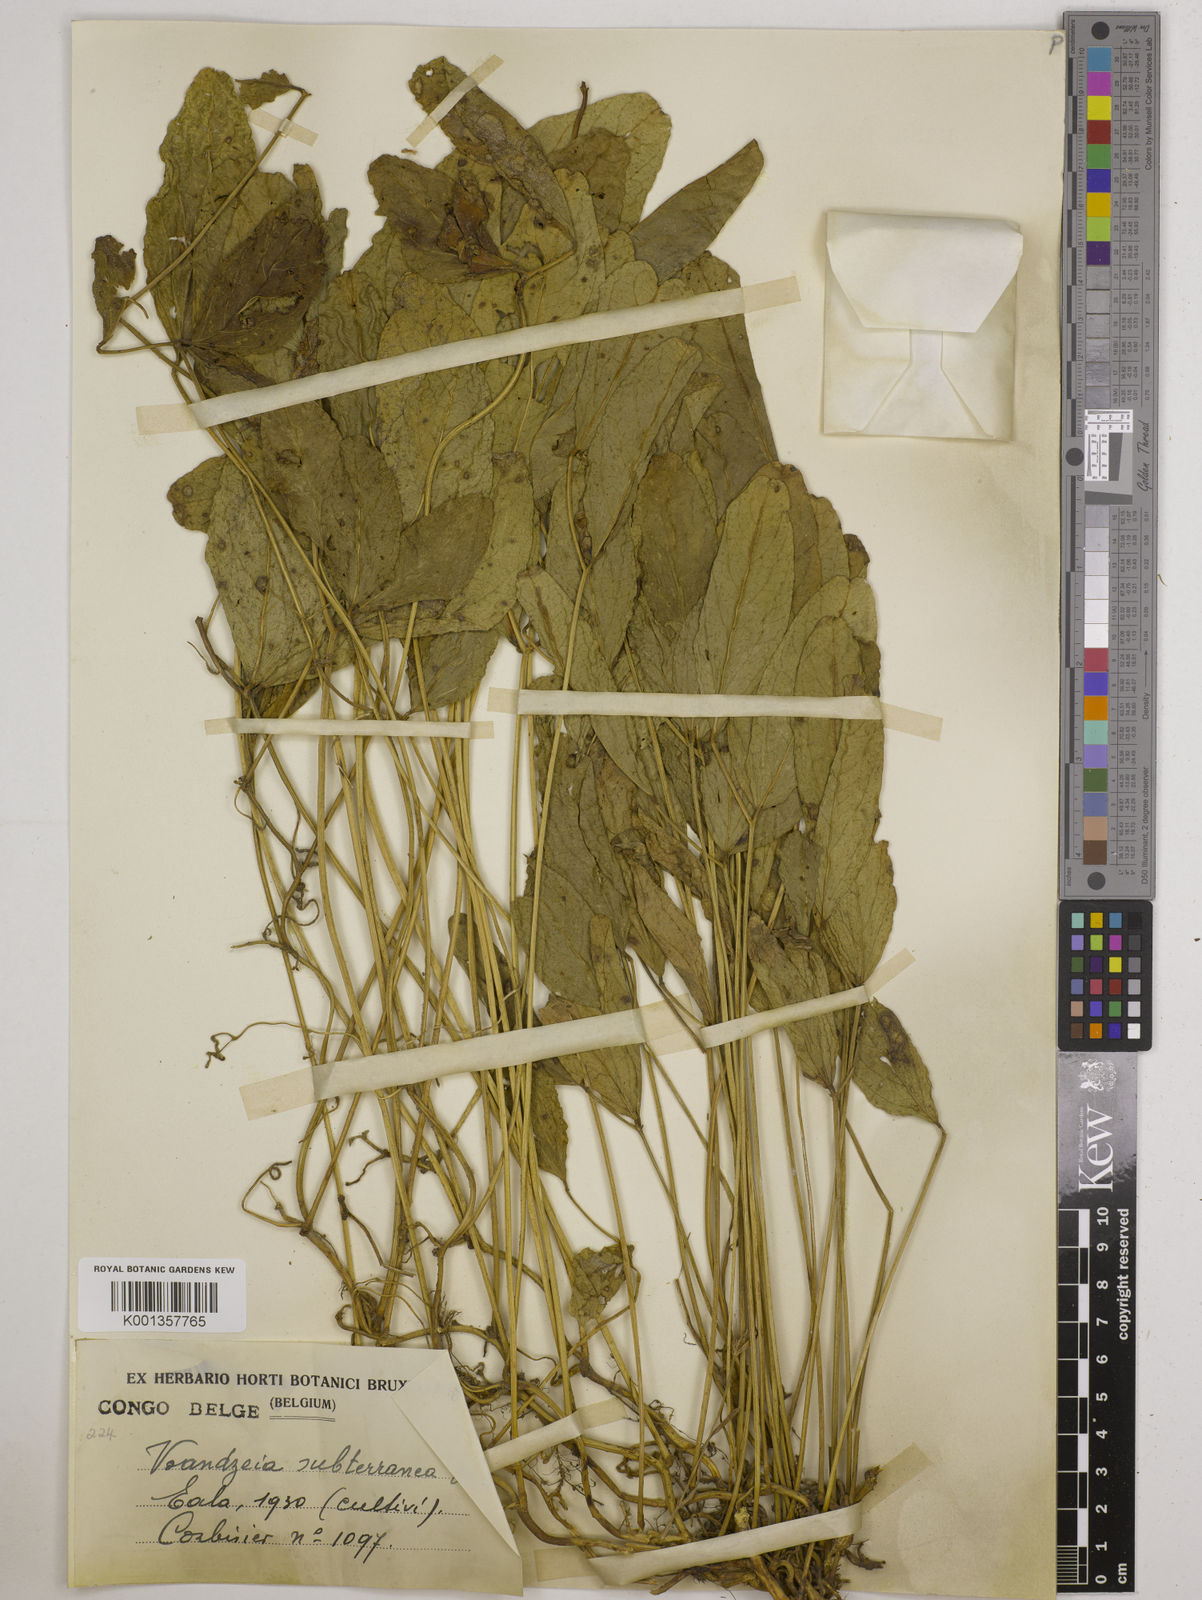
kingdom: Plantae
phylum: Tracheophyta
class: Magnoliopsida
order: Fabales
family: Fabaceae
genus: Vigna
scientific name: Vigna subterranea
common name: Bambara groundnut
